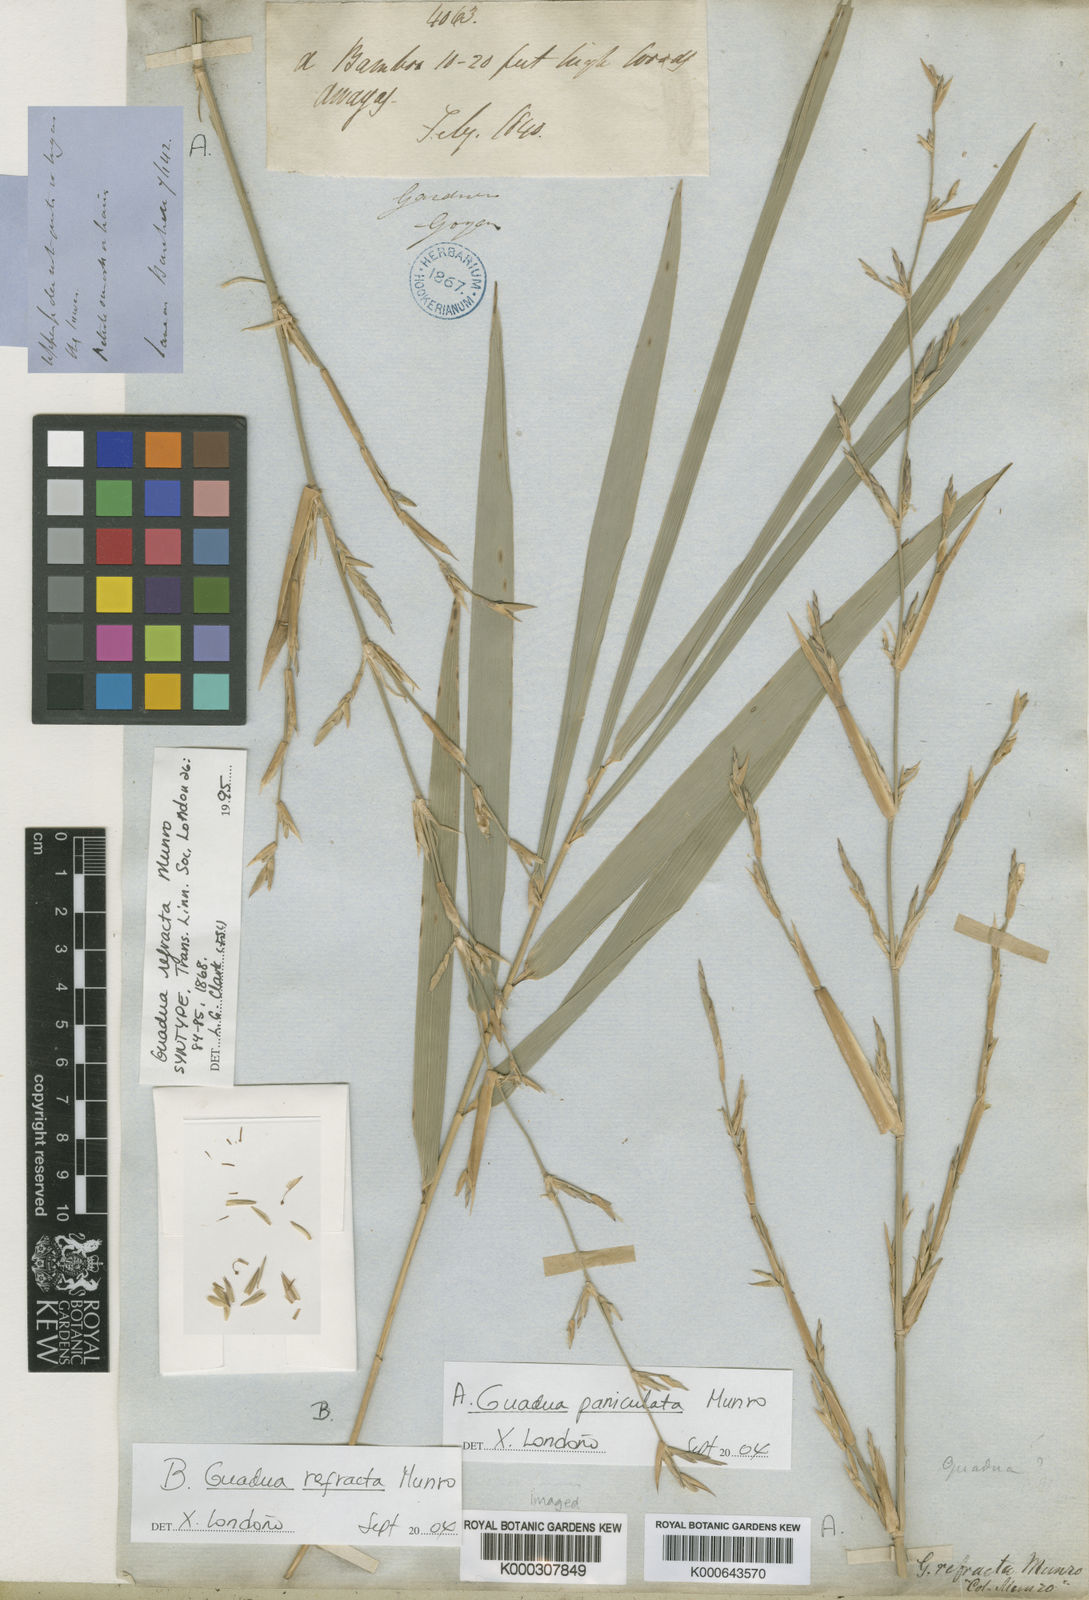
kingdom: Plantae
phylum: Tracheophyta
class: Liliopsida
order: Poales
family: Poaceae
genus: Guadua
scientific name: Guadua refracta
